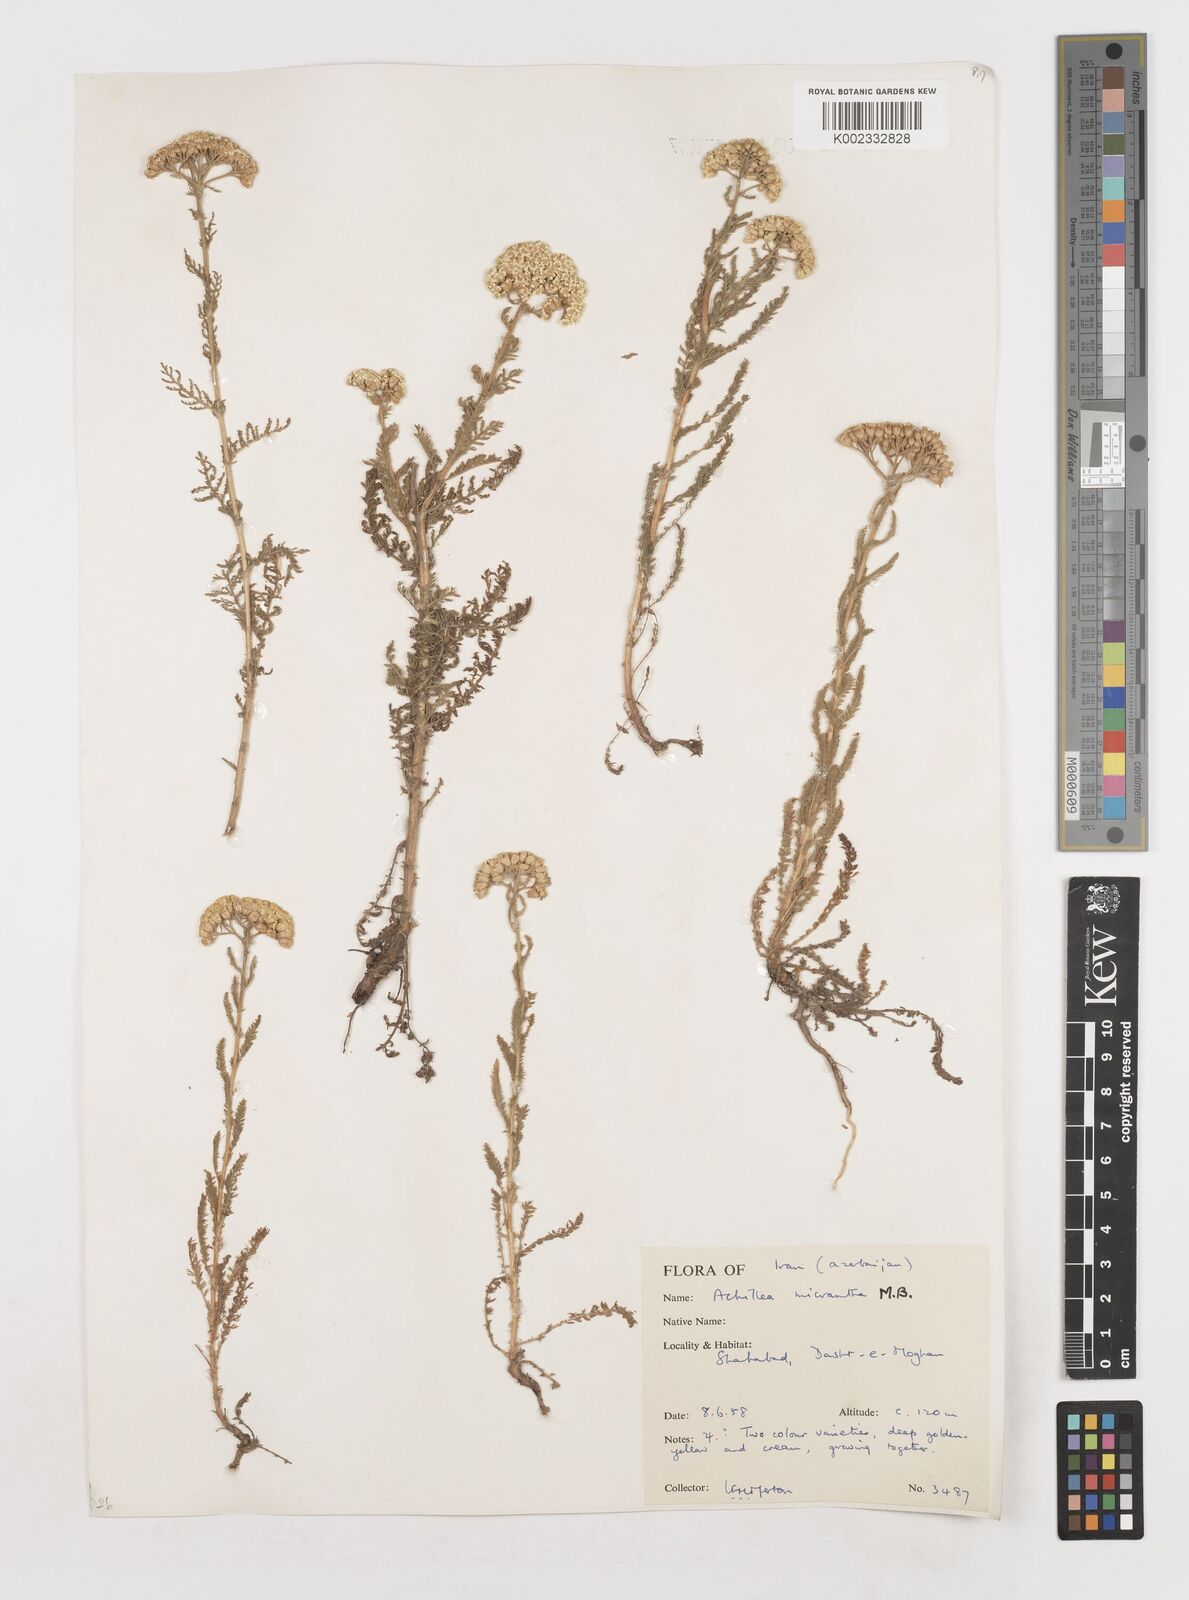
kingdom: Plantae
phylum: Tracheophyta
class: Magnoliopsida
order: Asterales
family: Asteraceae
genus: Achillea
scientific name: Achillea arabica
